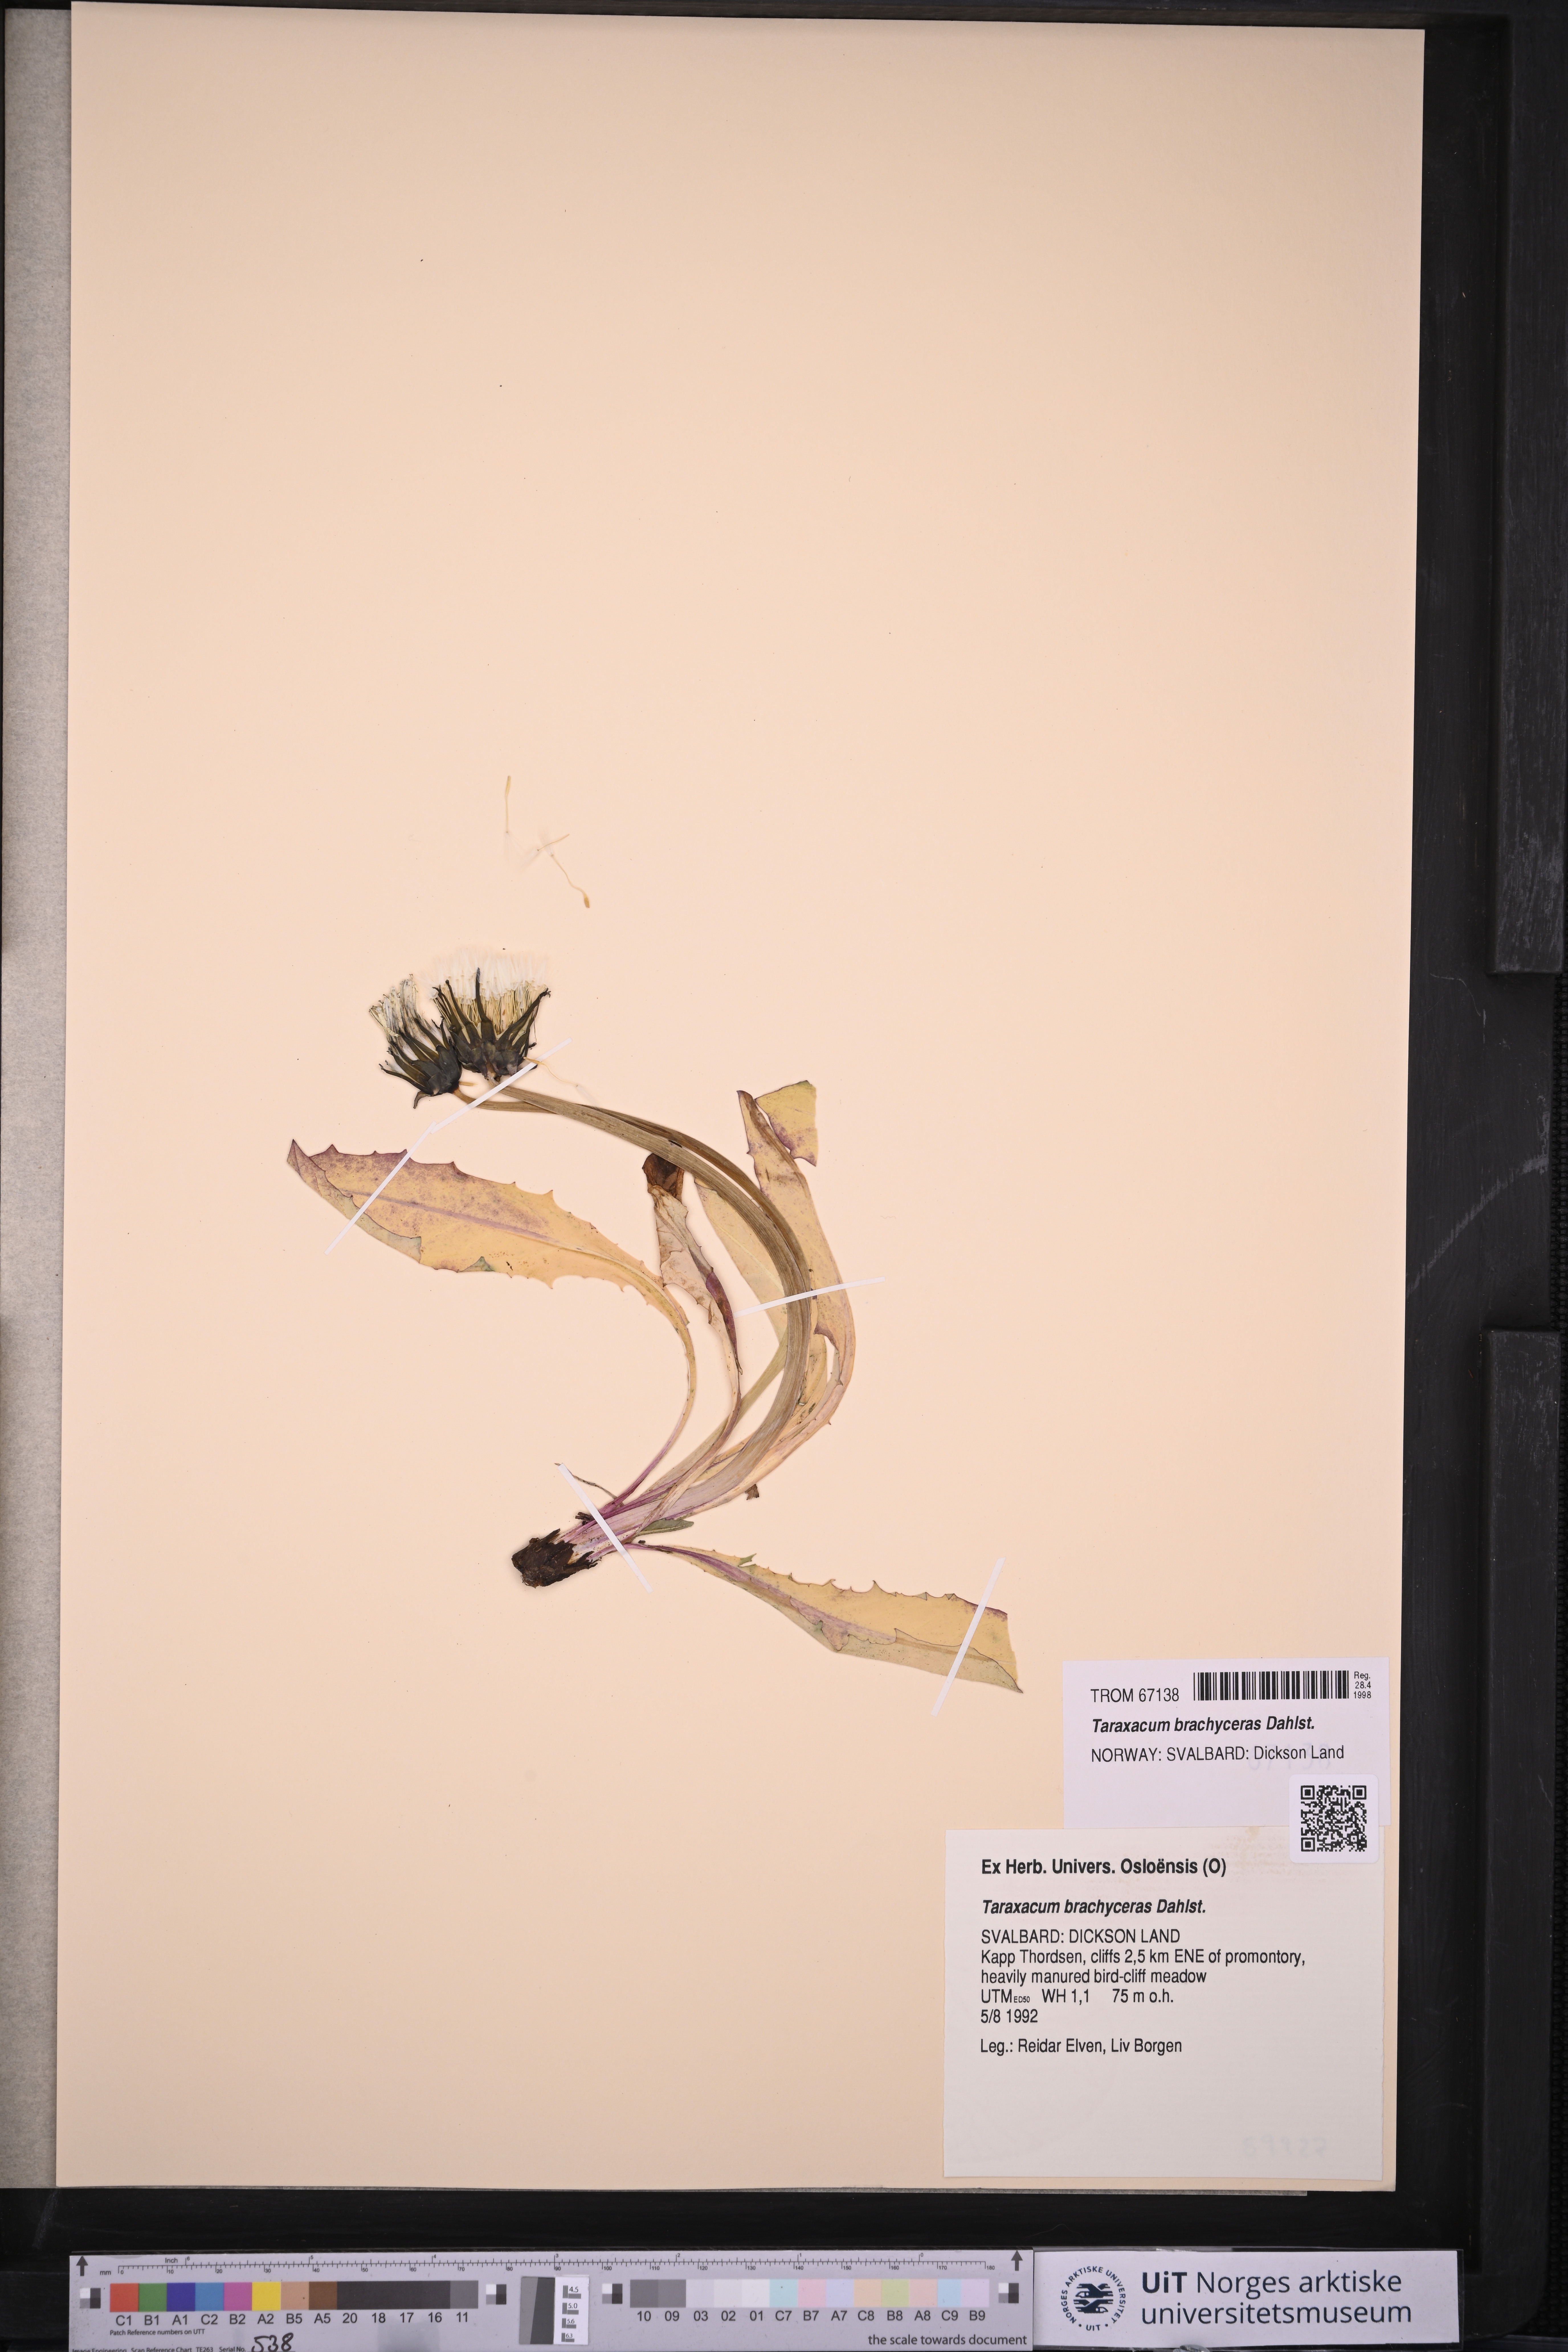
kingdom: Plantae
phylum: Tracheophyta
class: Magnoliopsida
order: Asterales
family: Asteraceae
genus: Taraxacum
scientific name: Taraxacum brachyceras
